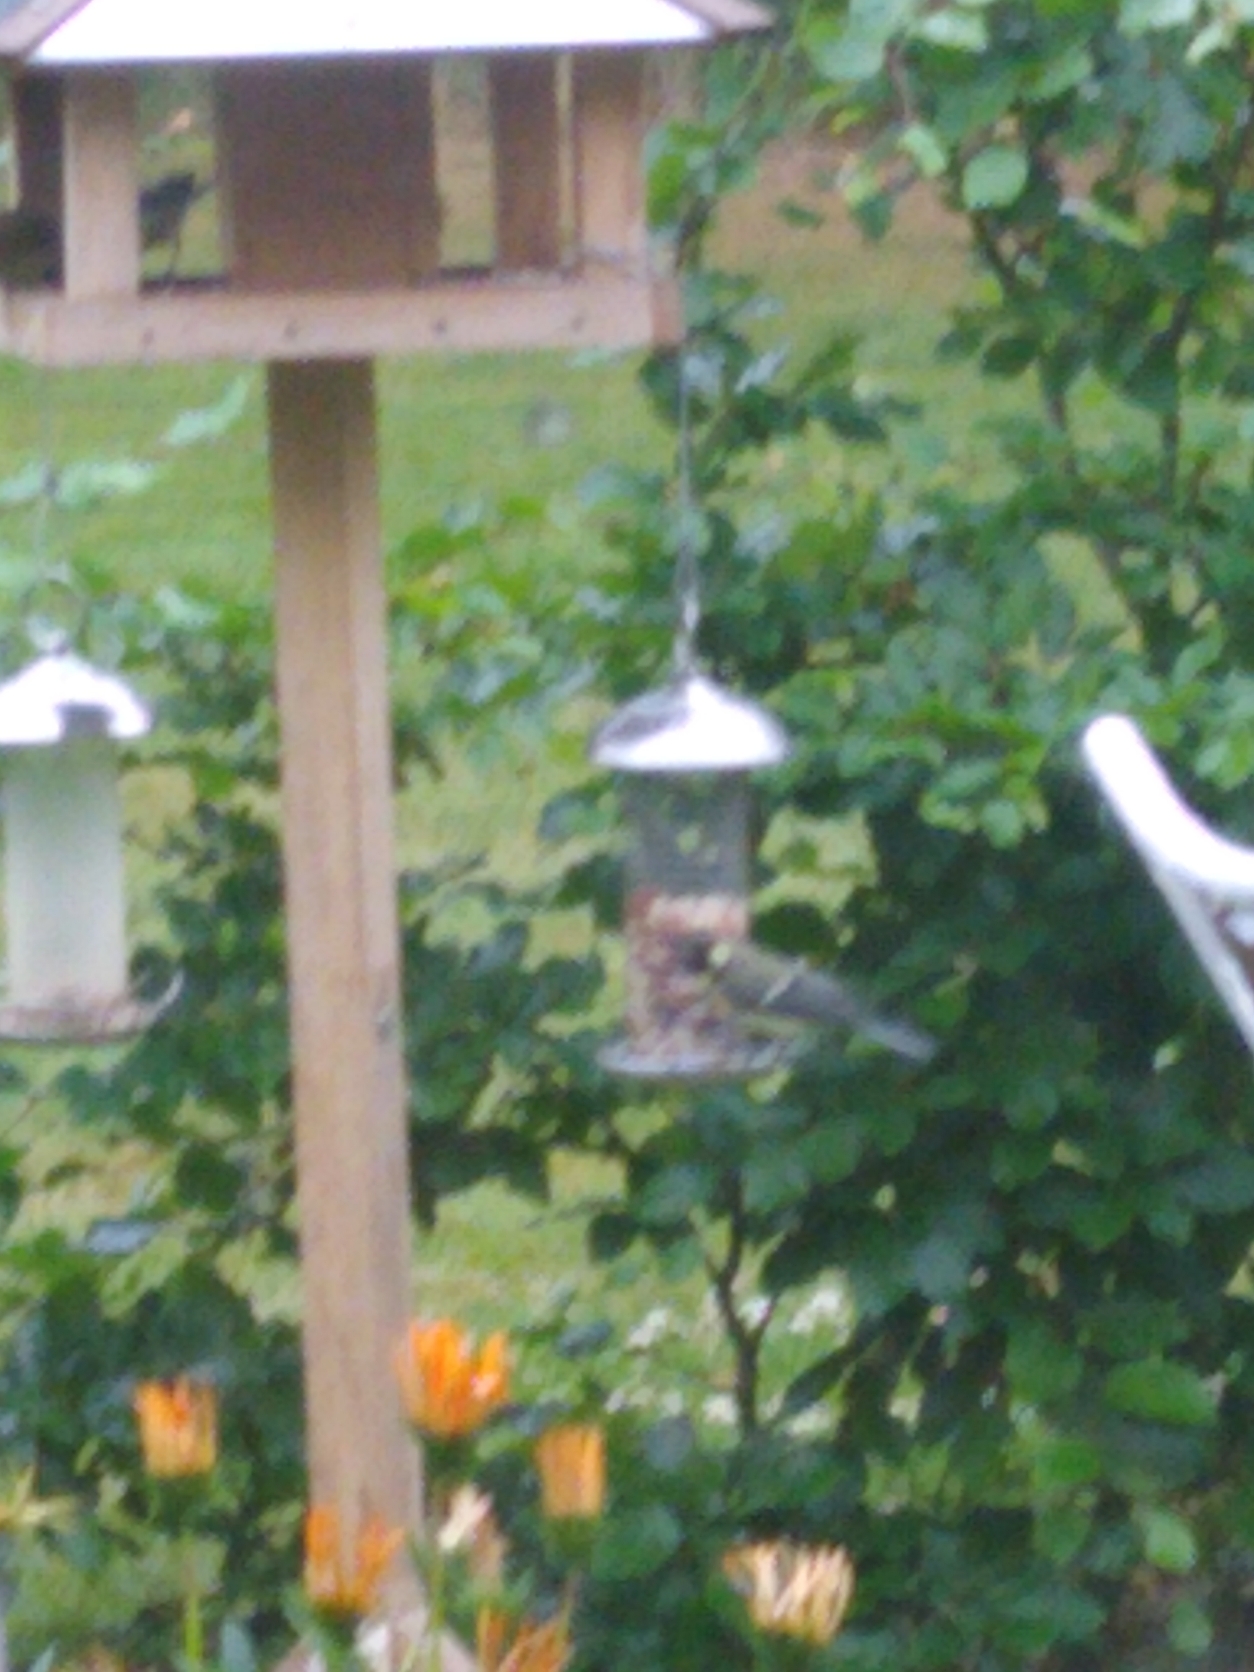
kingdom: Animalia
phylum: Chordata
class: Aves
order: Passeriformes
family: Paridae
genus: Parus
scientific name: Parus major
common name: Musvit
